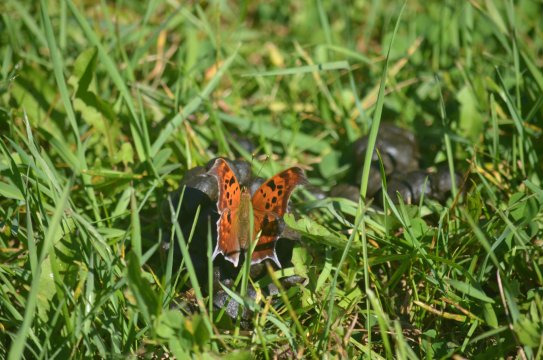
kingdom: Animalia
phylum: Arthropoda
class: Insecta
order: Lepidoptera
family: Nymphalidae
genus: Polygonia
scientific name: Polygonia interrogationis
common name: Question Mark
